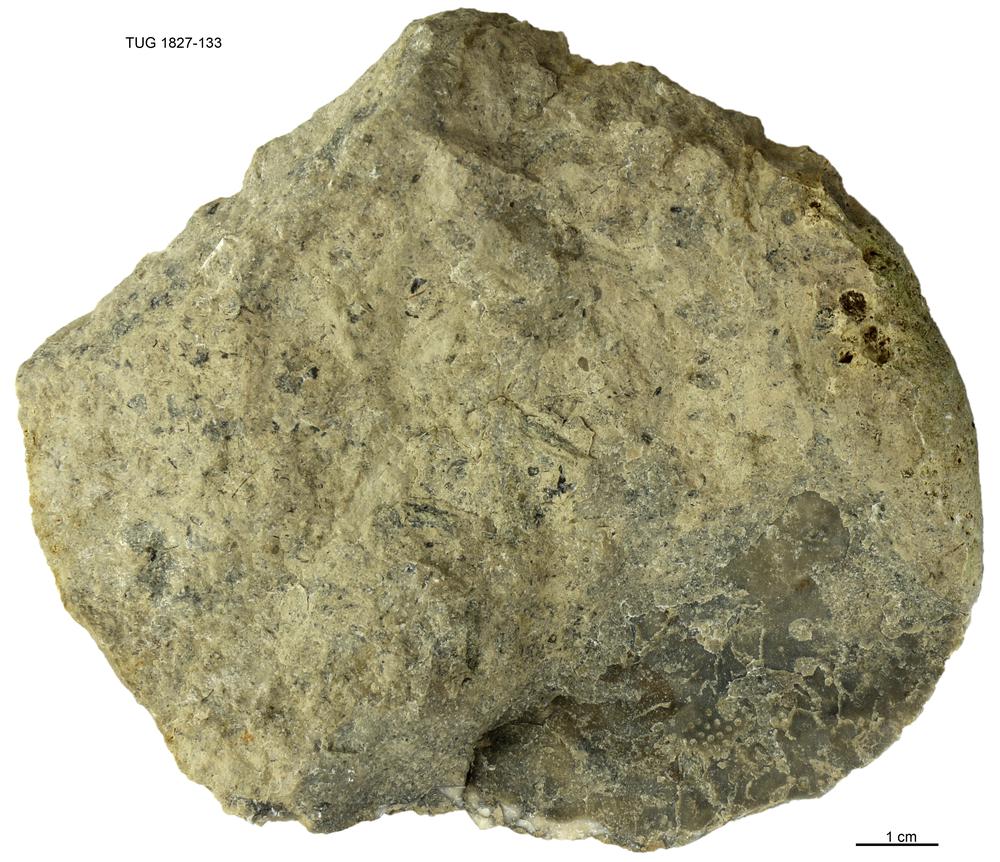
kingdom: Animalia
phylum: Cnidaria
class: Anthozoa
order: Heliolitina
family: Heliolitidae
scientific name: Heliolitidae
